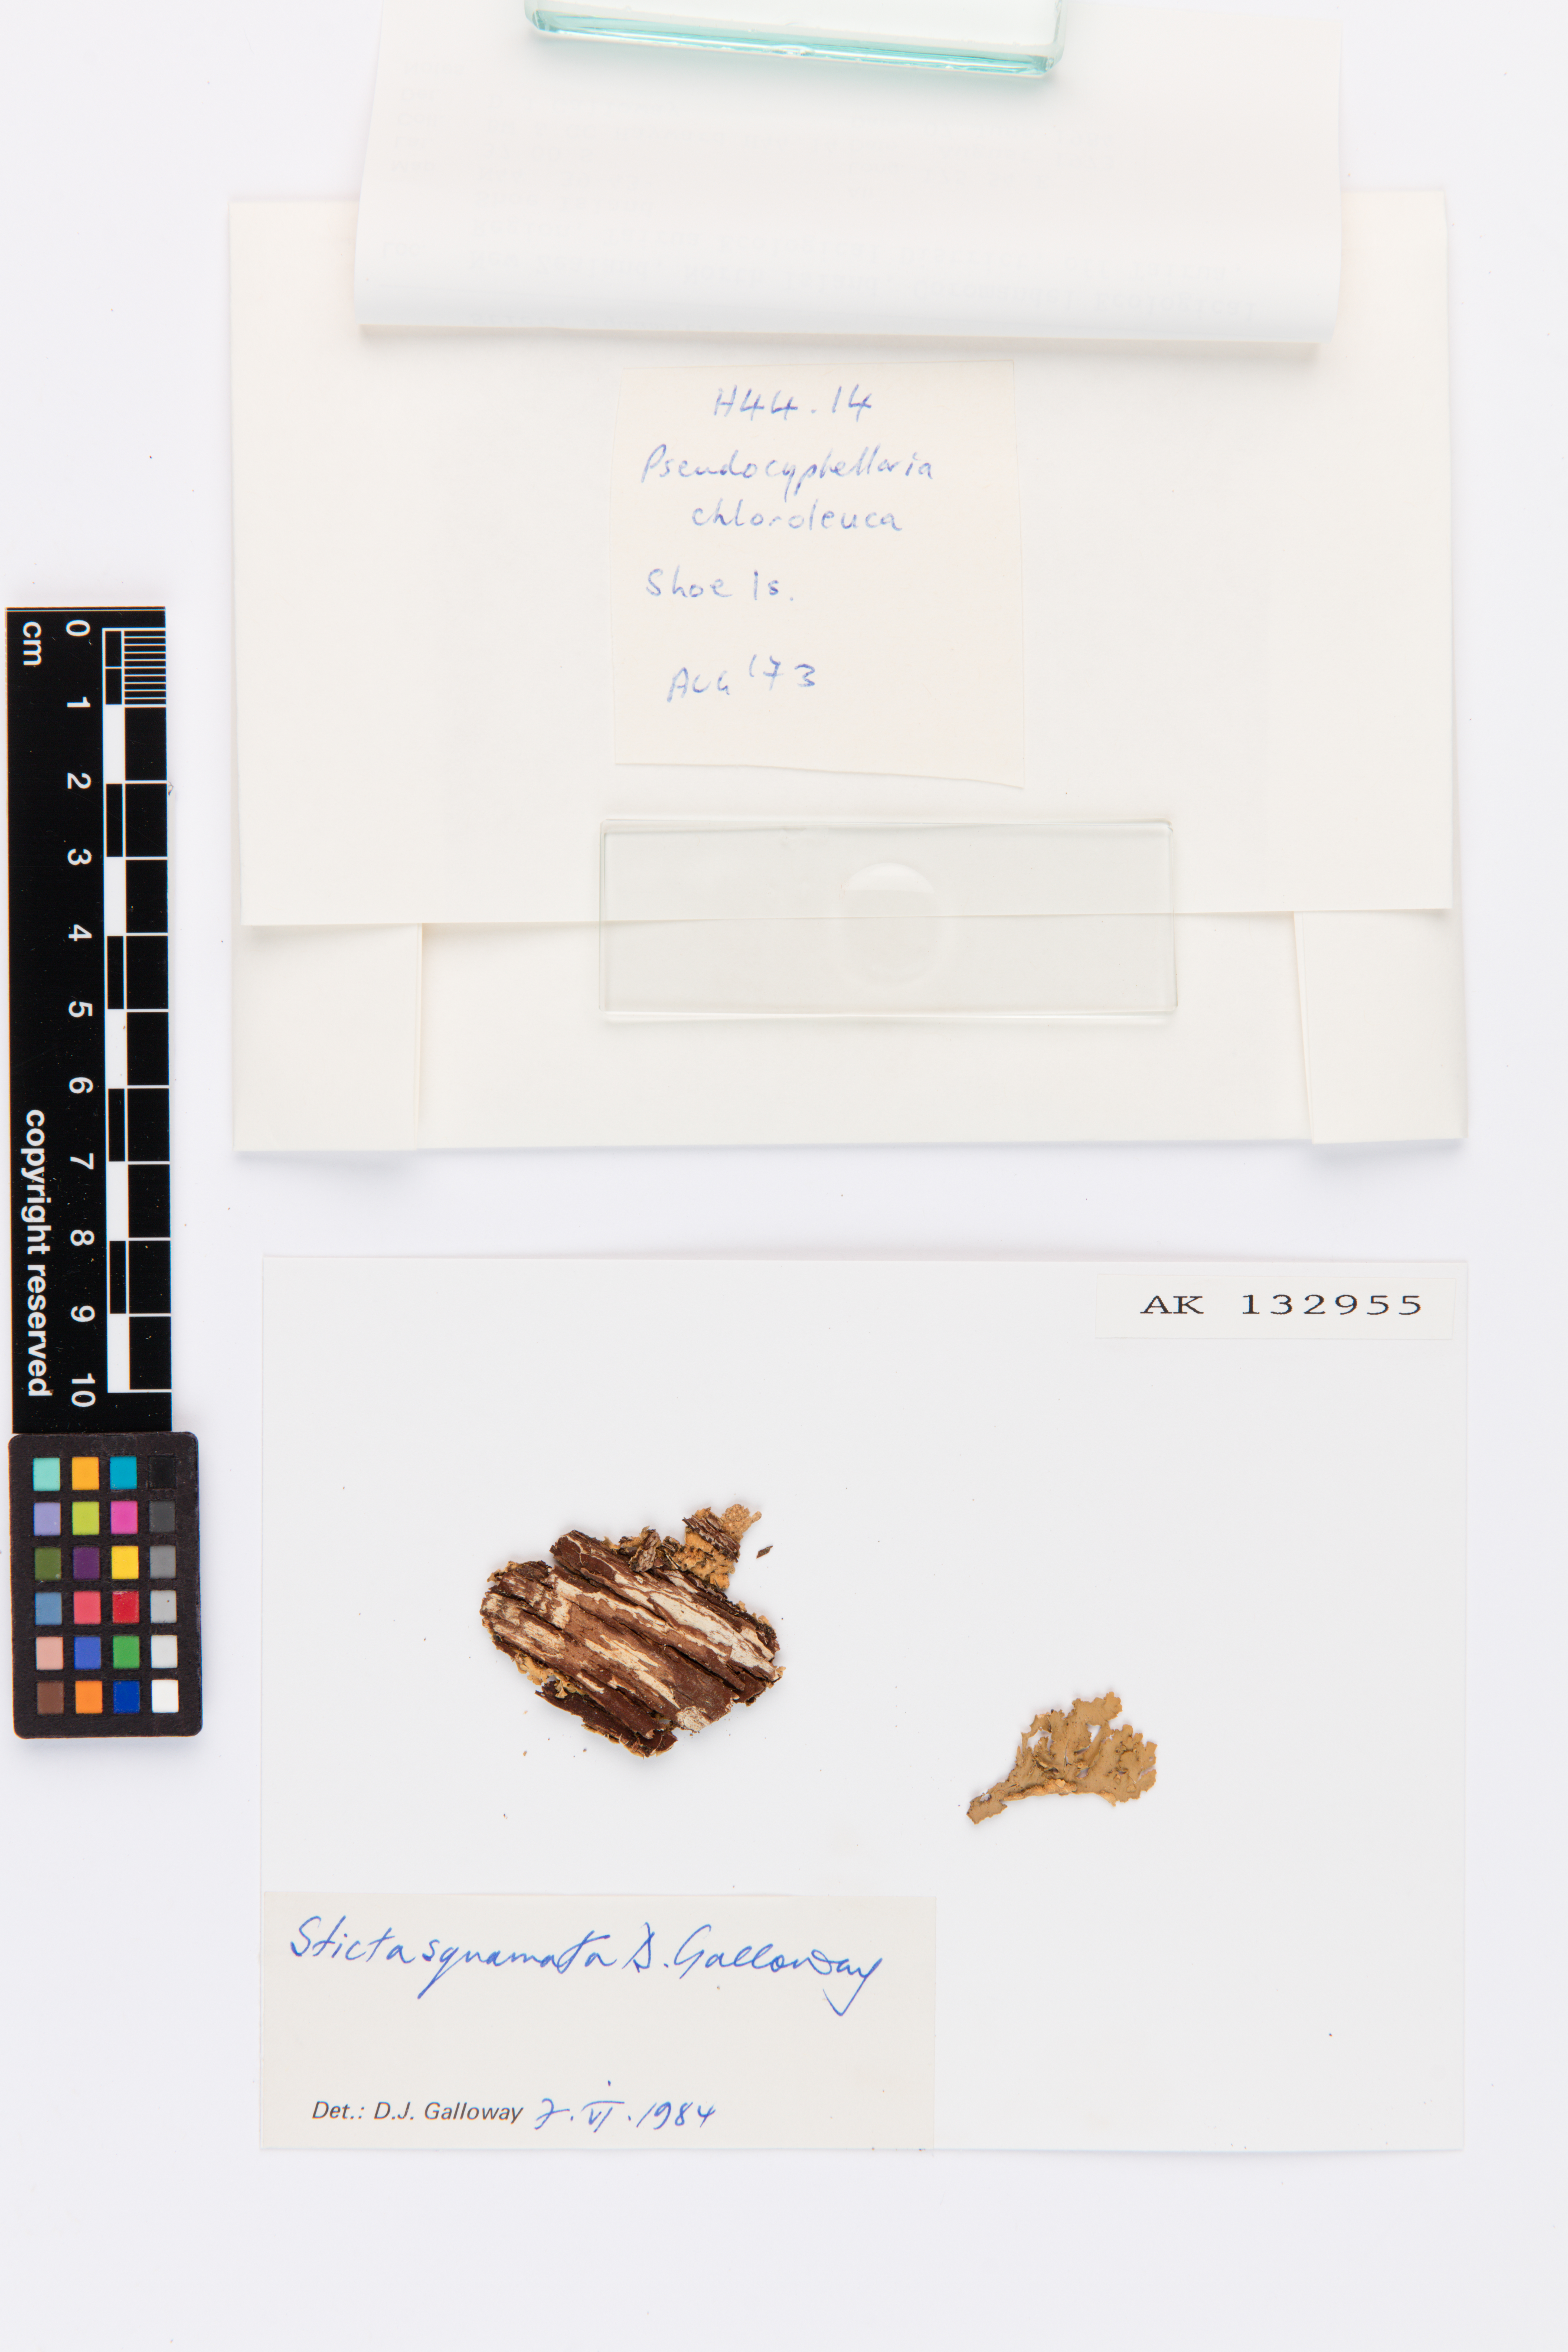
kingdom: Fungi
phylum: Ascomycota
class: Lecanoromycetes
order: Peltigerales
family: Lobariaceae
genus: Sticta
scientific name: Sticta squamata
